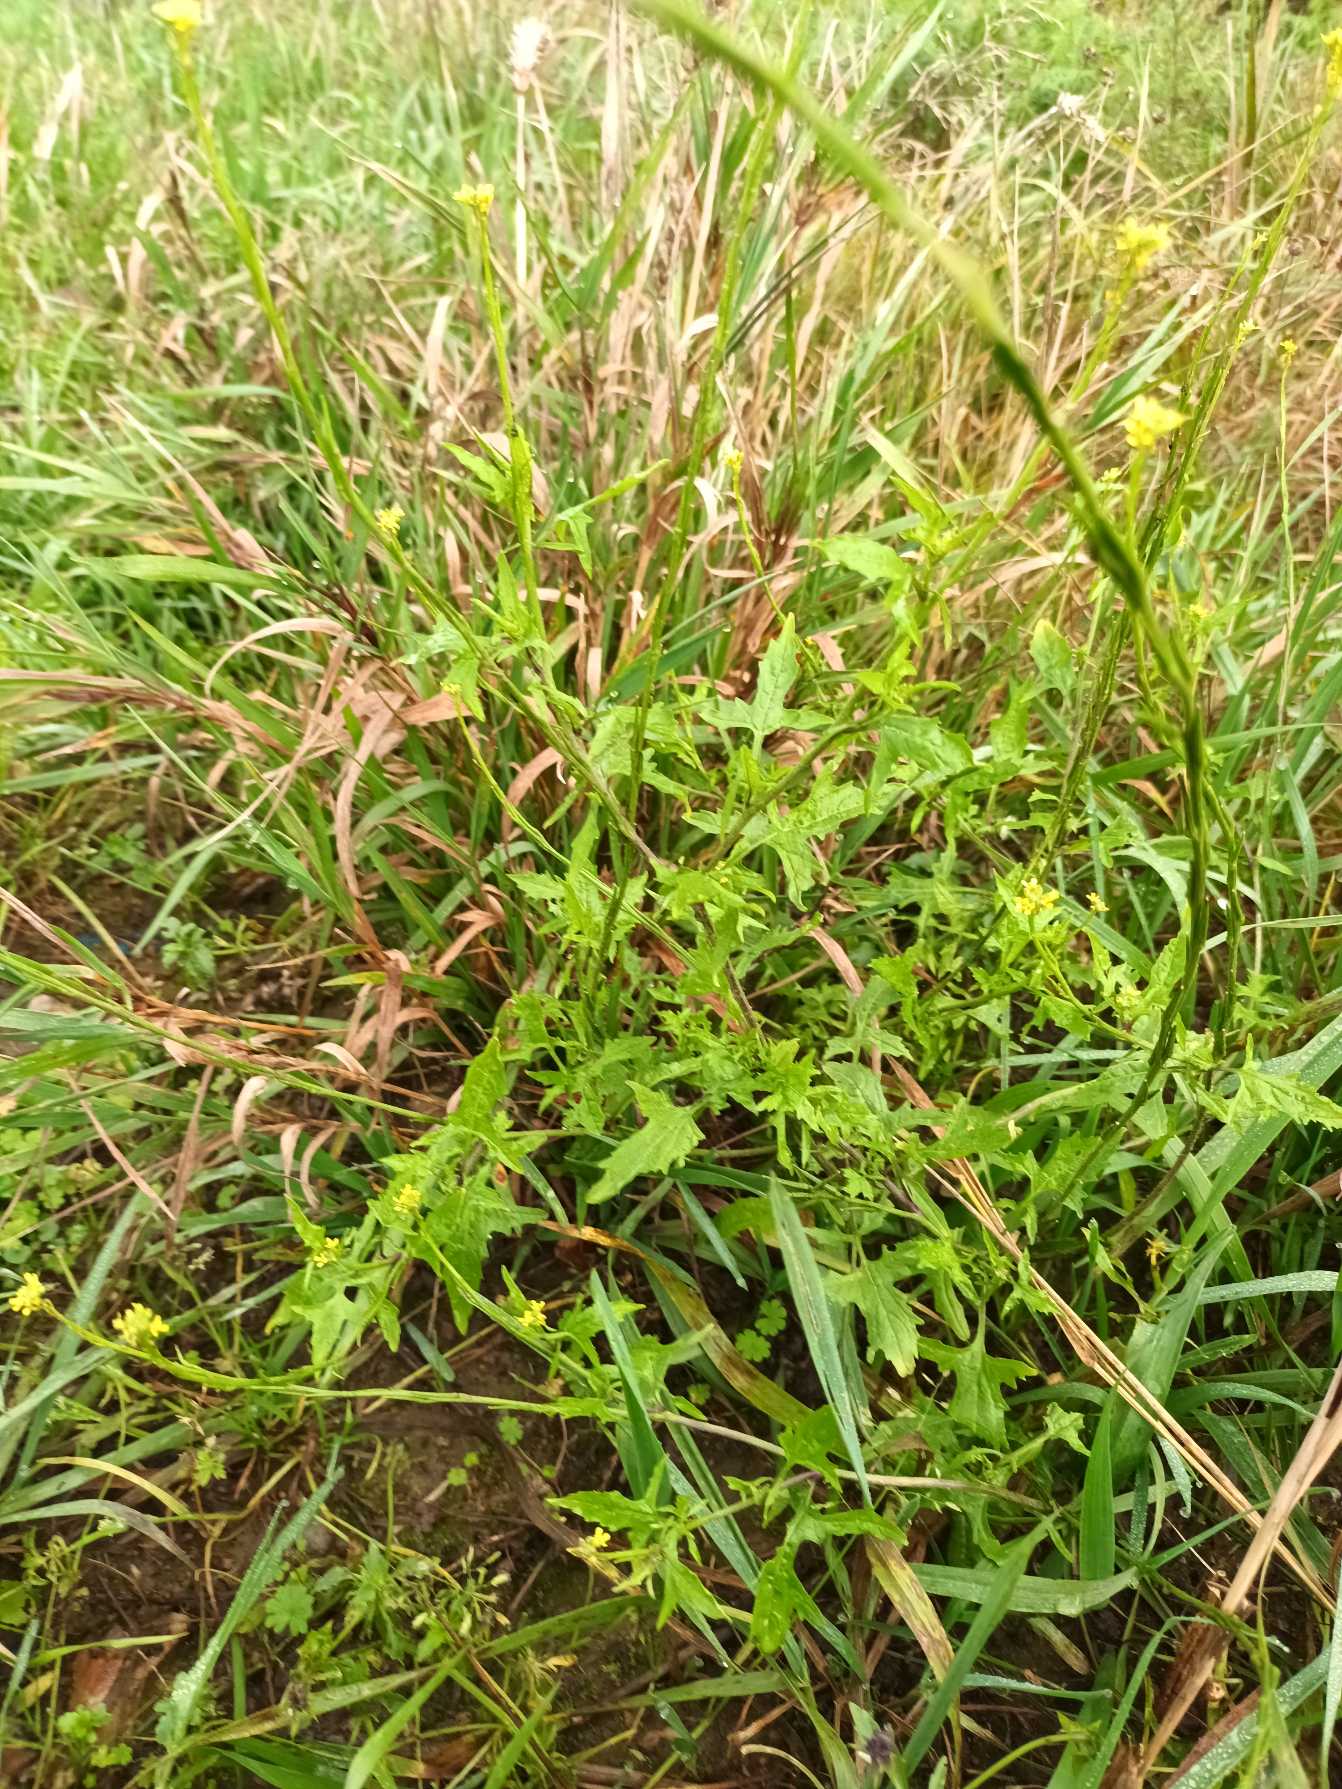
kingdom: Plantae
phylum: Tracheophyta
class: Magnoliopsida
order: Brassicales
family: Brassicaceae
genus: Sisymbrium
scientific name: Sisymbrium officinale
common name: Rank vejsennep
